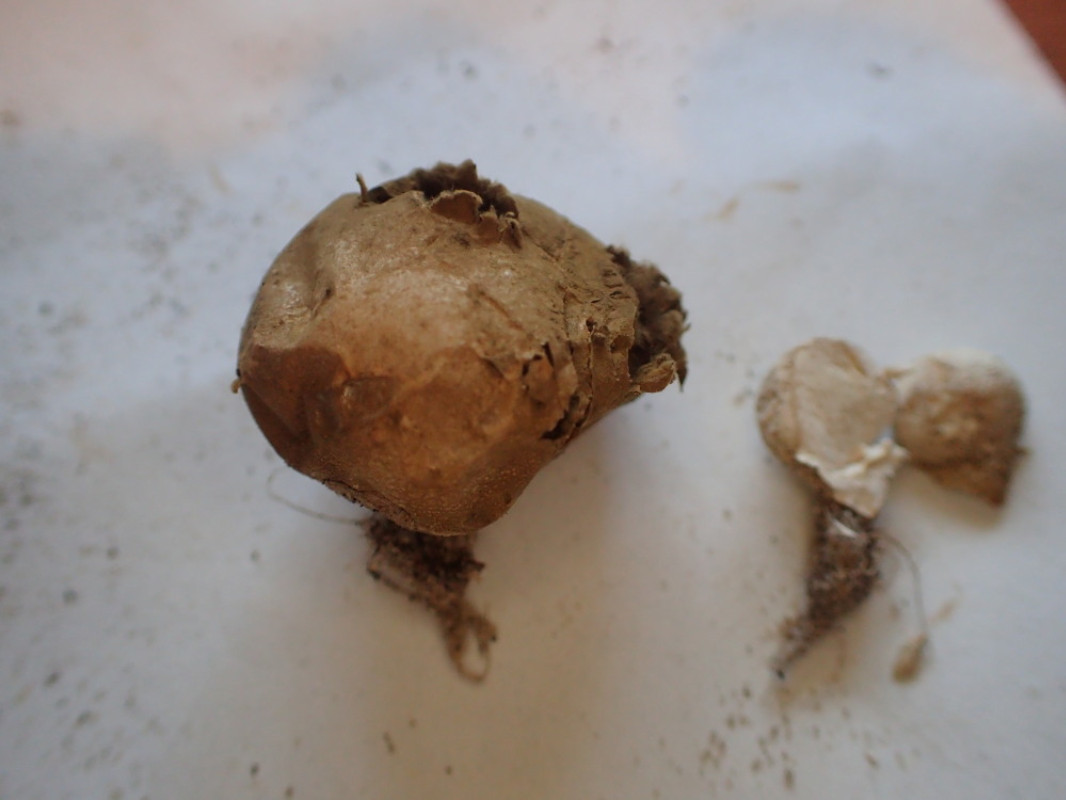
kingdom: Fungi
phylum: Basidiomycota
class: Agaricomycetes
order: Agaricales
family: Lycoperdaceae
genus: Bovista
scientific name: Bovista nigrescens
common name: sortagtig bovist
